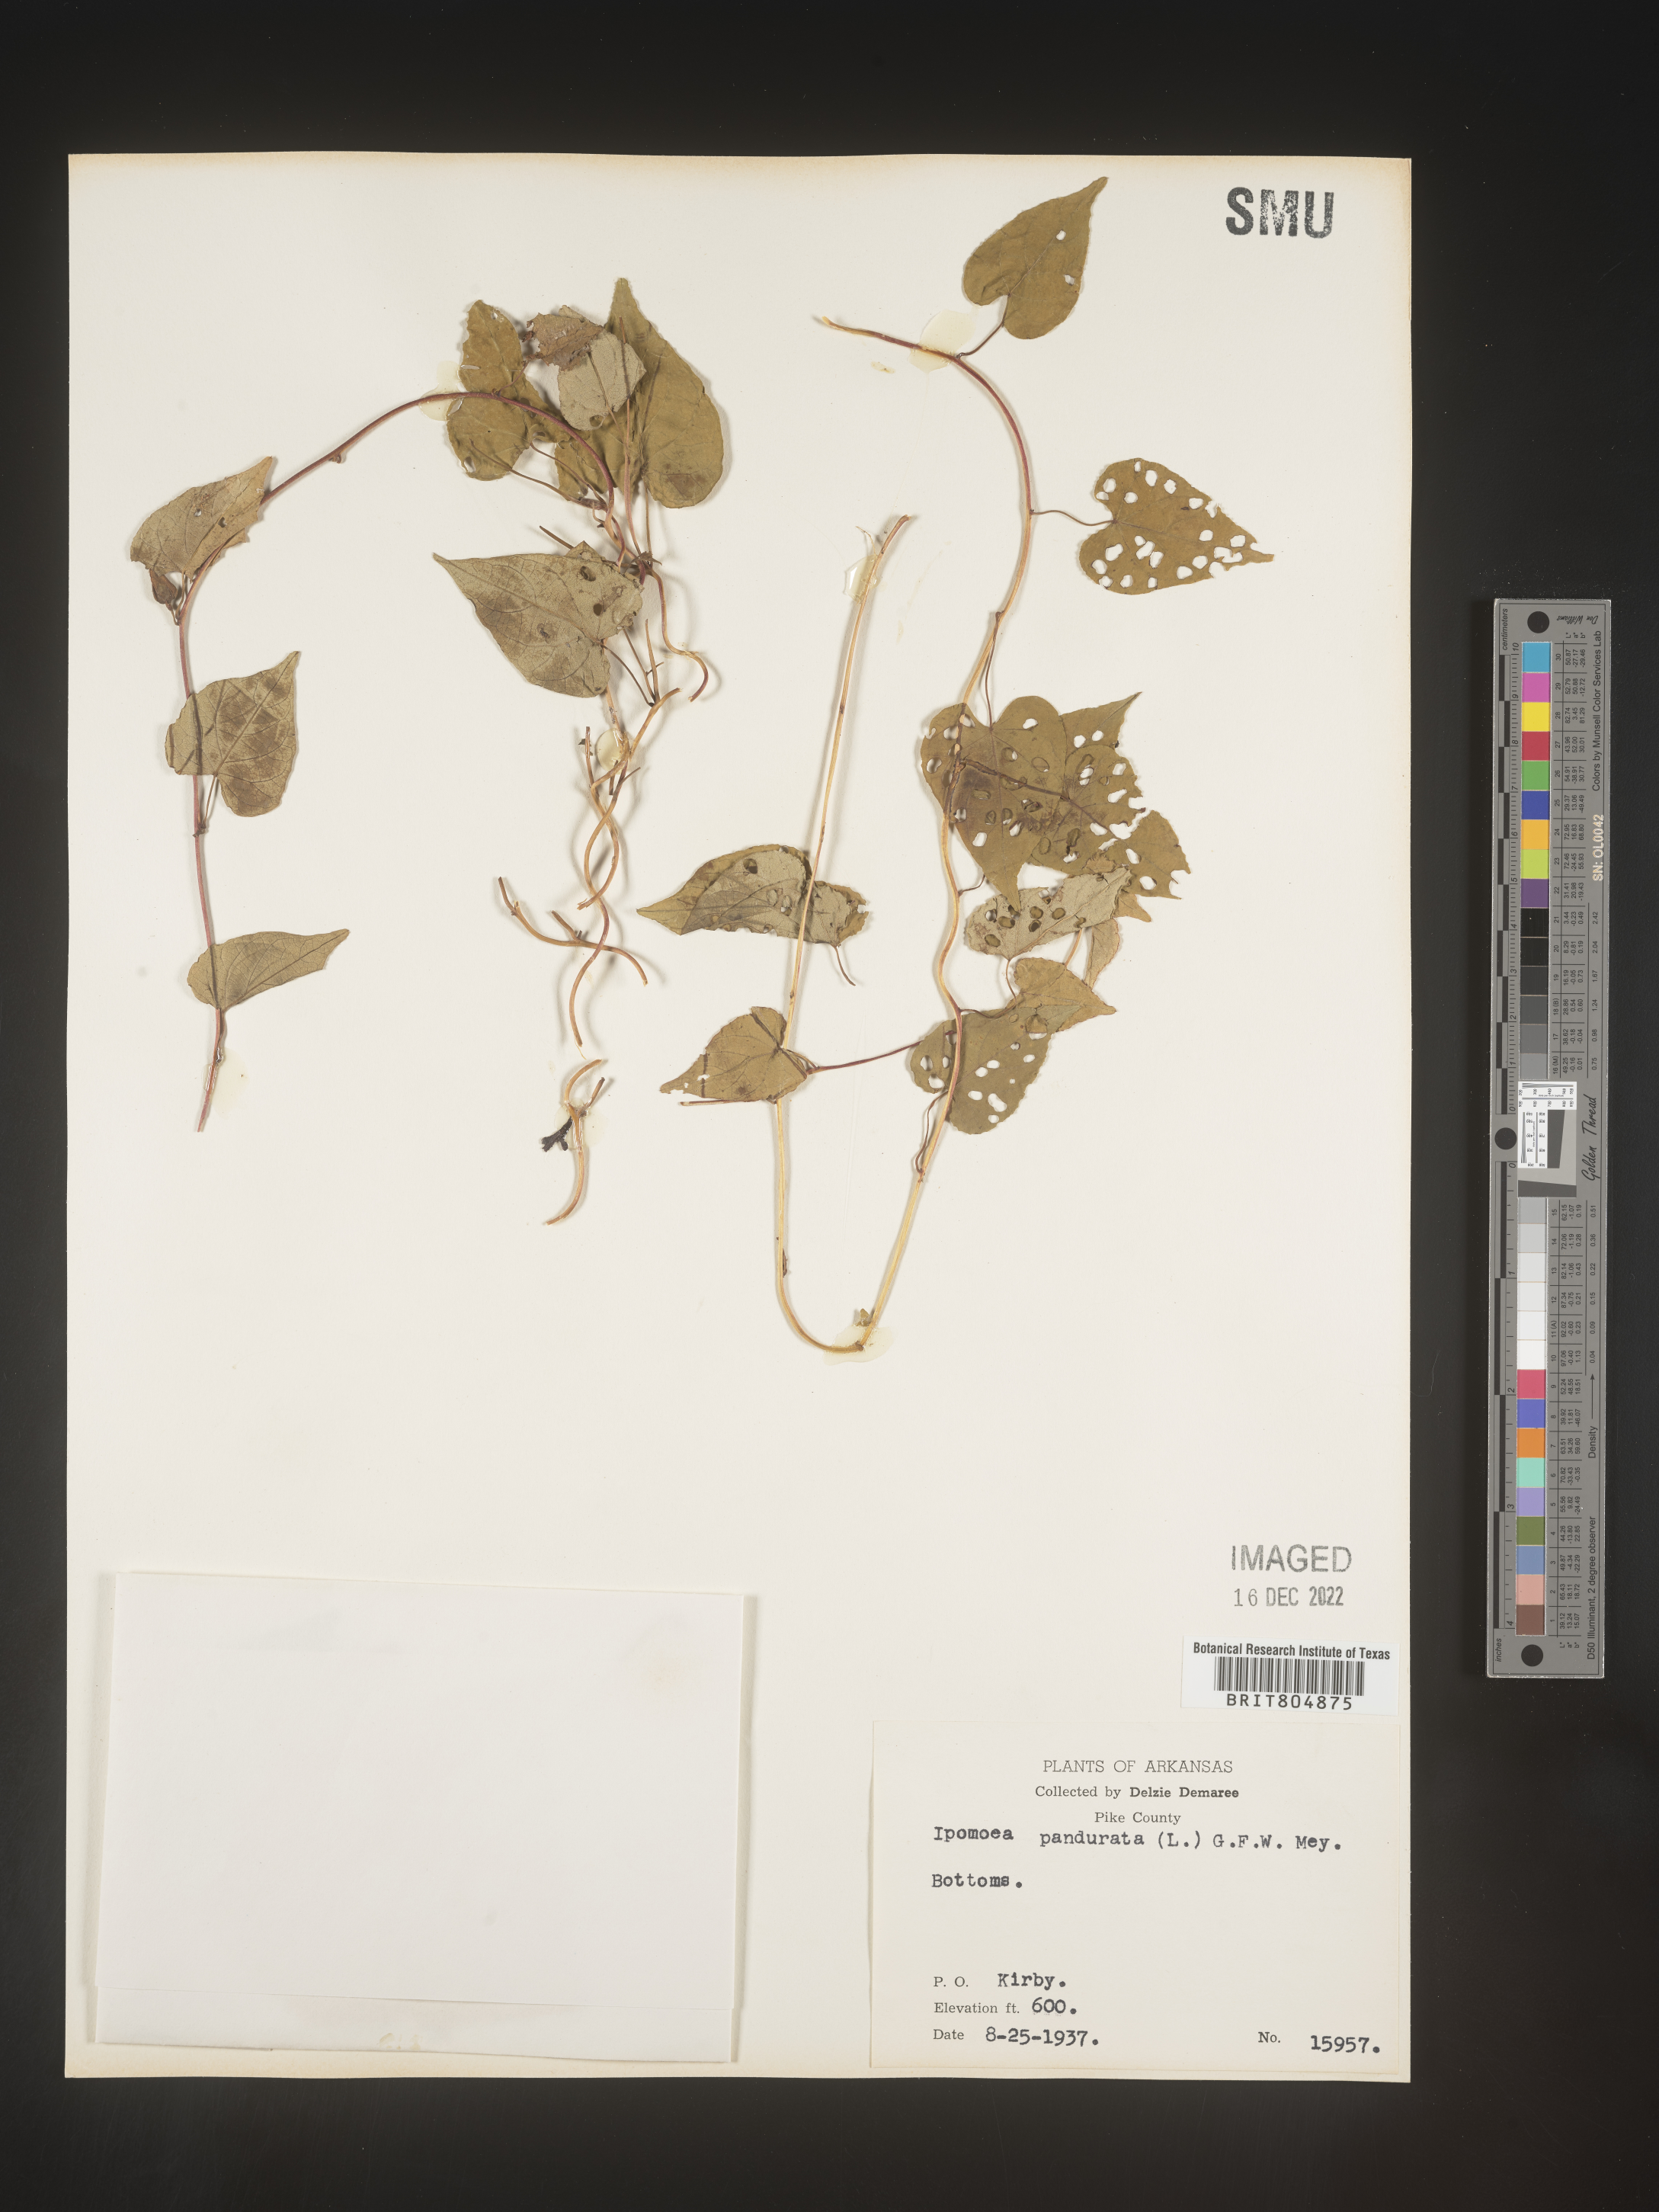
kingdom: Plantae
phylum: Tracheophyta
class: Magnoliopsida
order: Solanales
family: Convolvulaceae
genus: Ipomoea
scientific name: Ipomoea pandurata
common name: Man-of-the-earth
